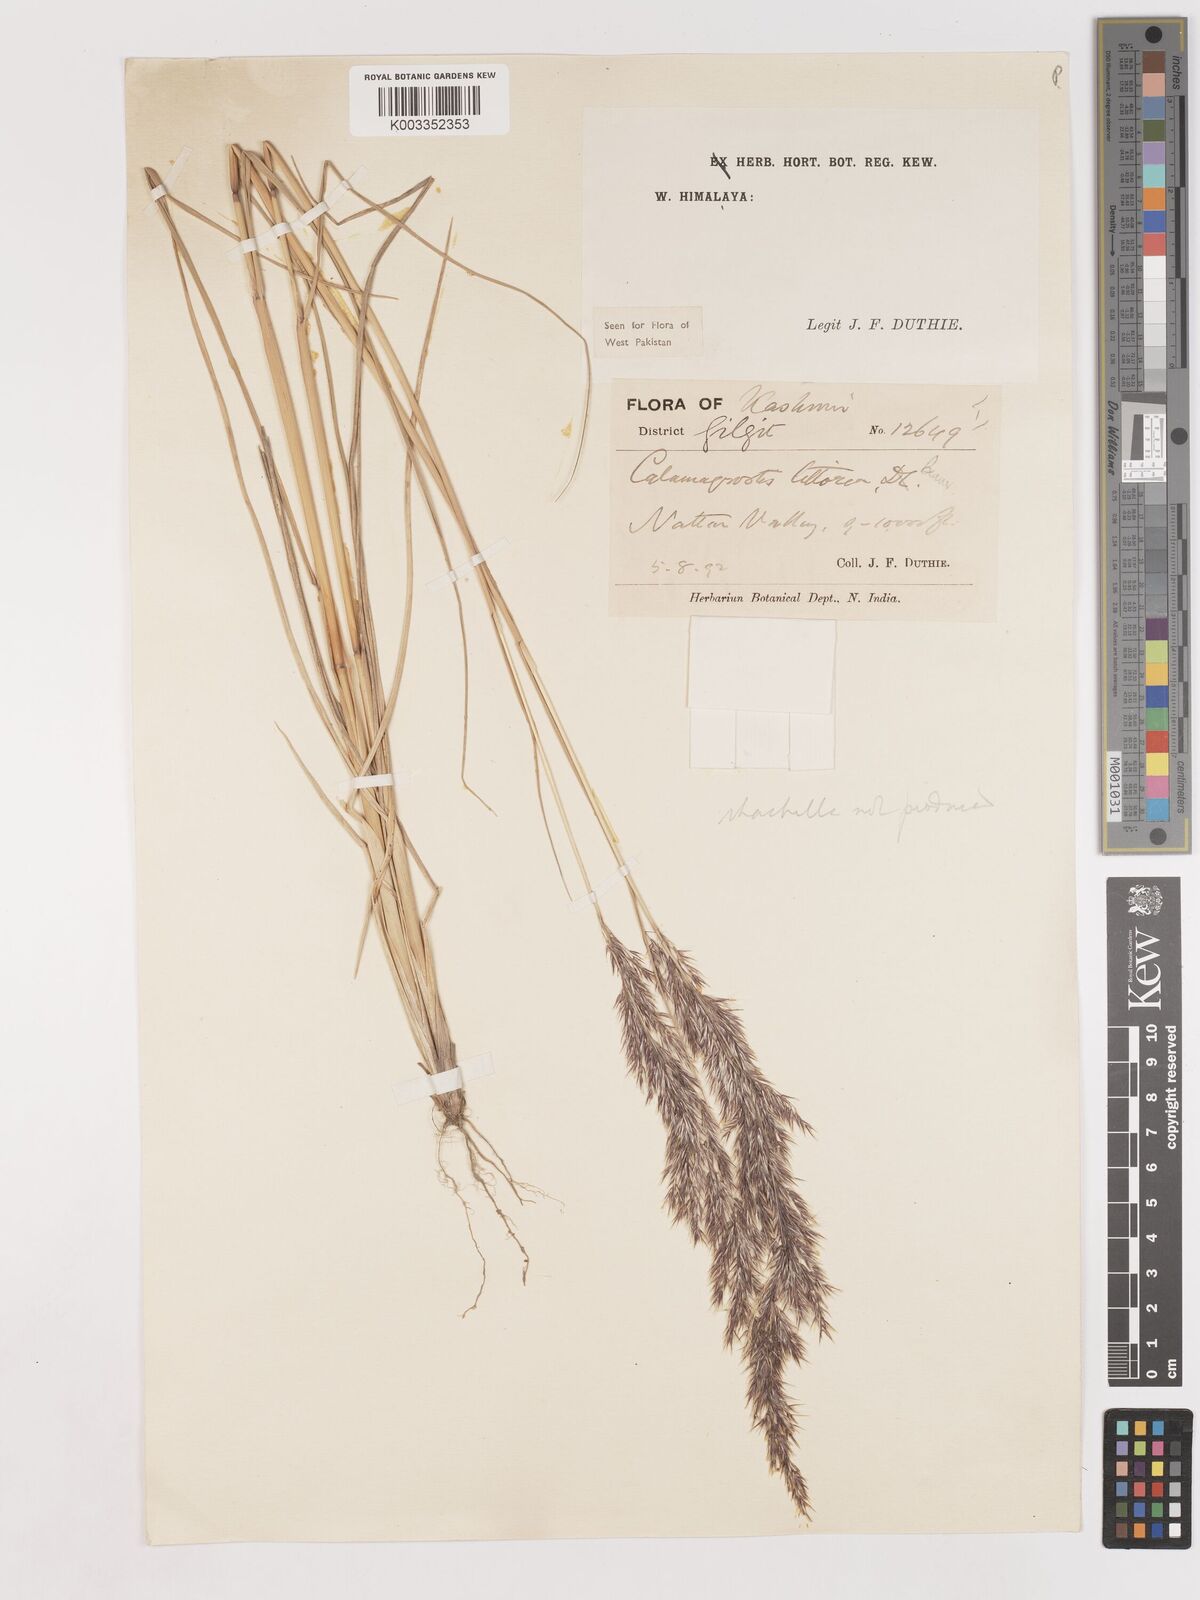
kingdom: Plantae
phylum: Tracheophyta
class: Liliopsida
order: Poales
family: Poaceae
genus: Calamagrostis
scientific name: Calamagrostis pseudophragmites
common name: Coastal small-reed
